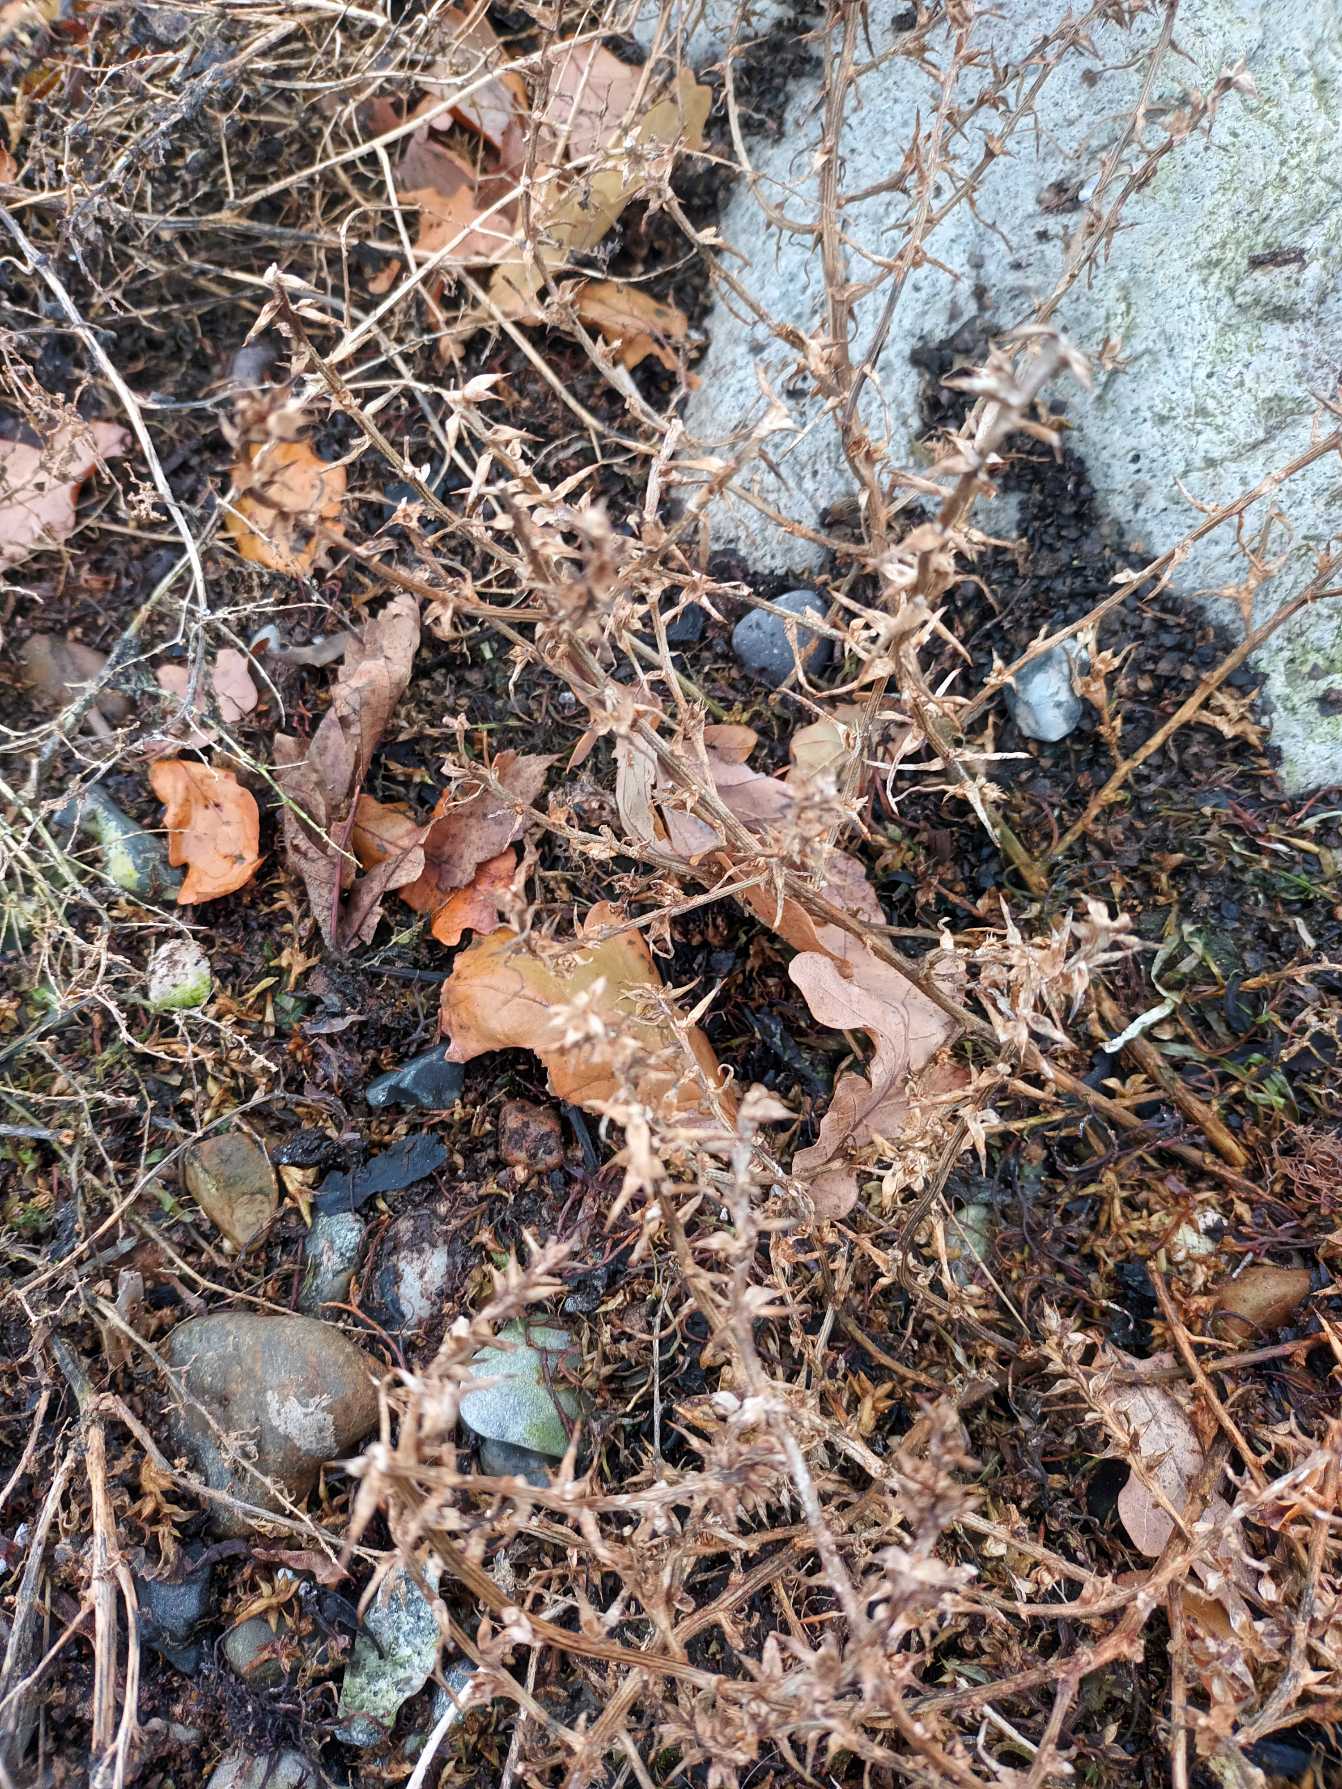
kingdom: Plantae
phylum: Tracheophyta
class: Magnoliopsida
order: Caryophyllales
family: Amaranthaceae
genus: Salsola
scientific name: Salsola kali
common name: Sodaurt
